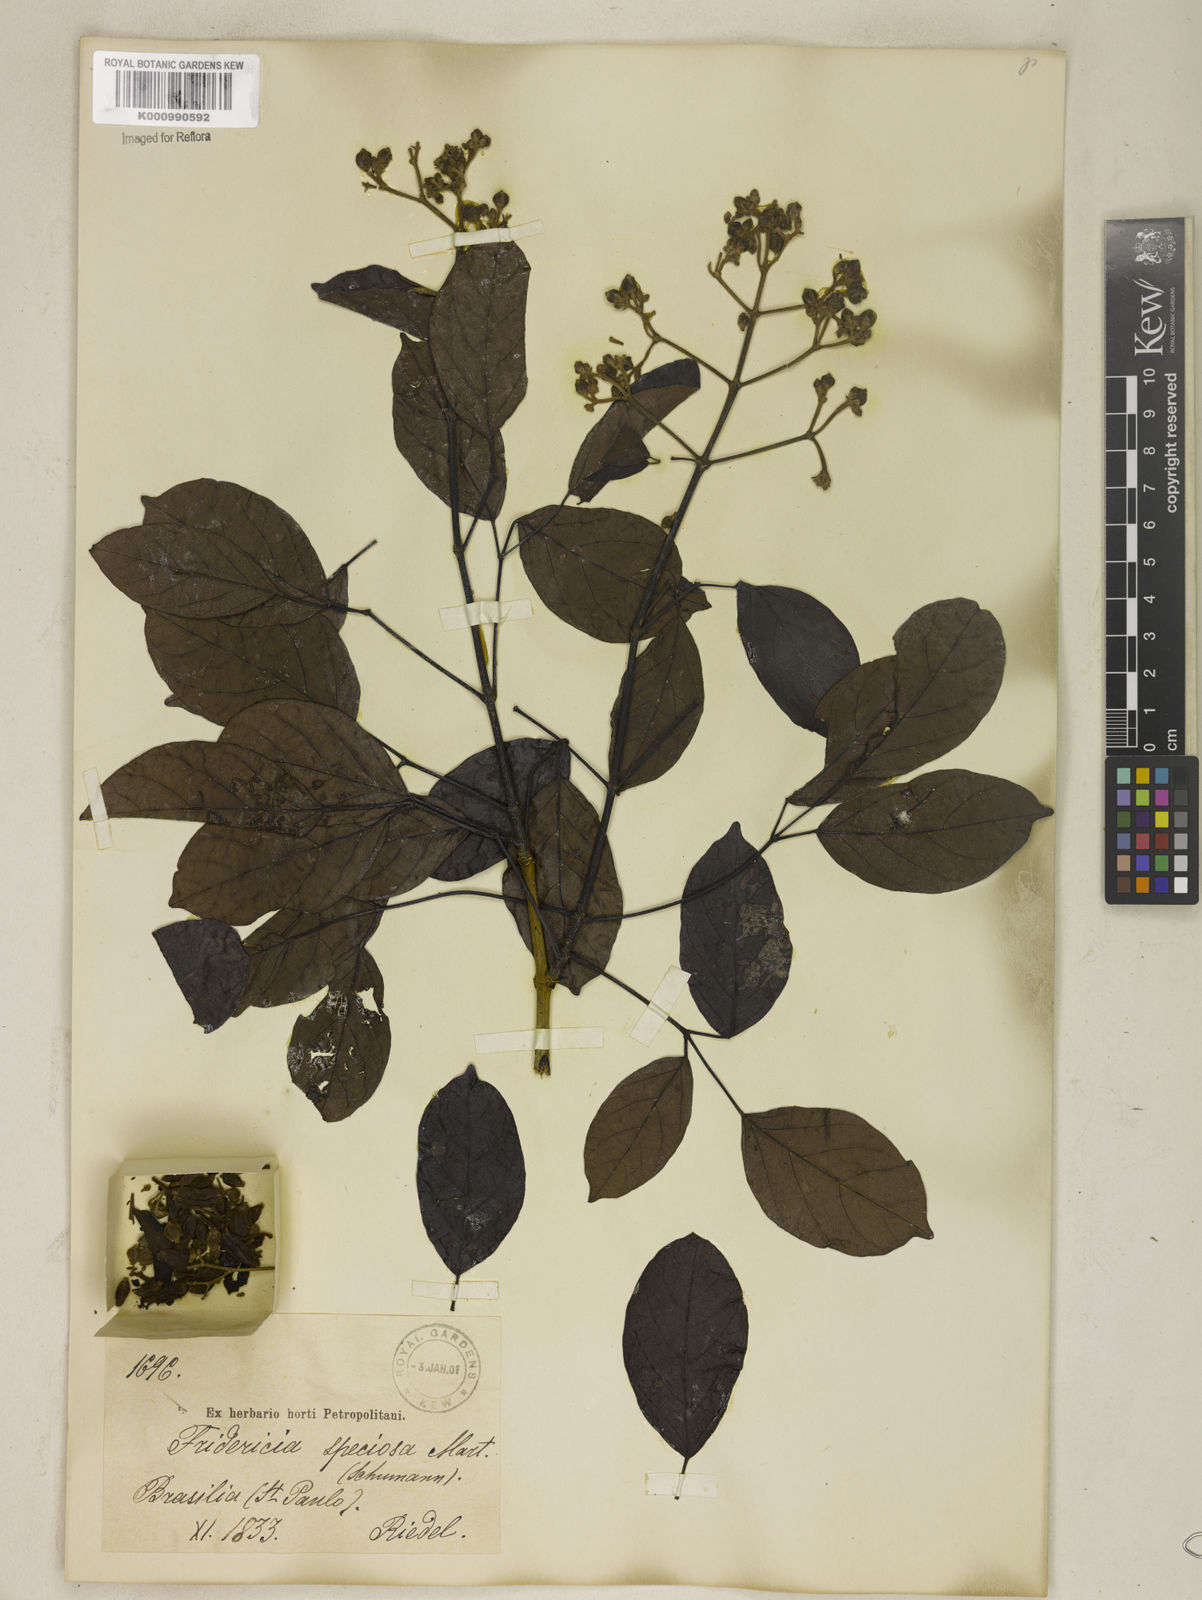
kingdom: Plantae
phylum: Tracheophyta
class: Magnoliopsida
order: Lamiales
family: Bignoniaceae
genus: Fridericia
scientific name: Fridericia speciosa
